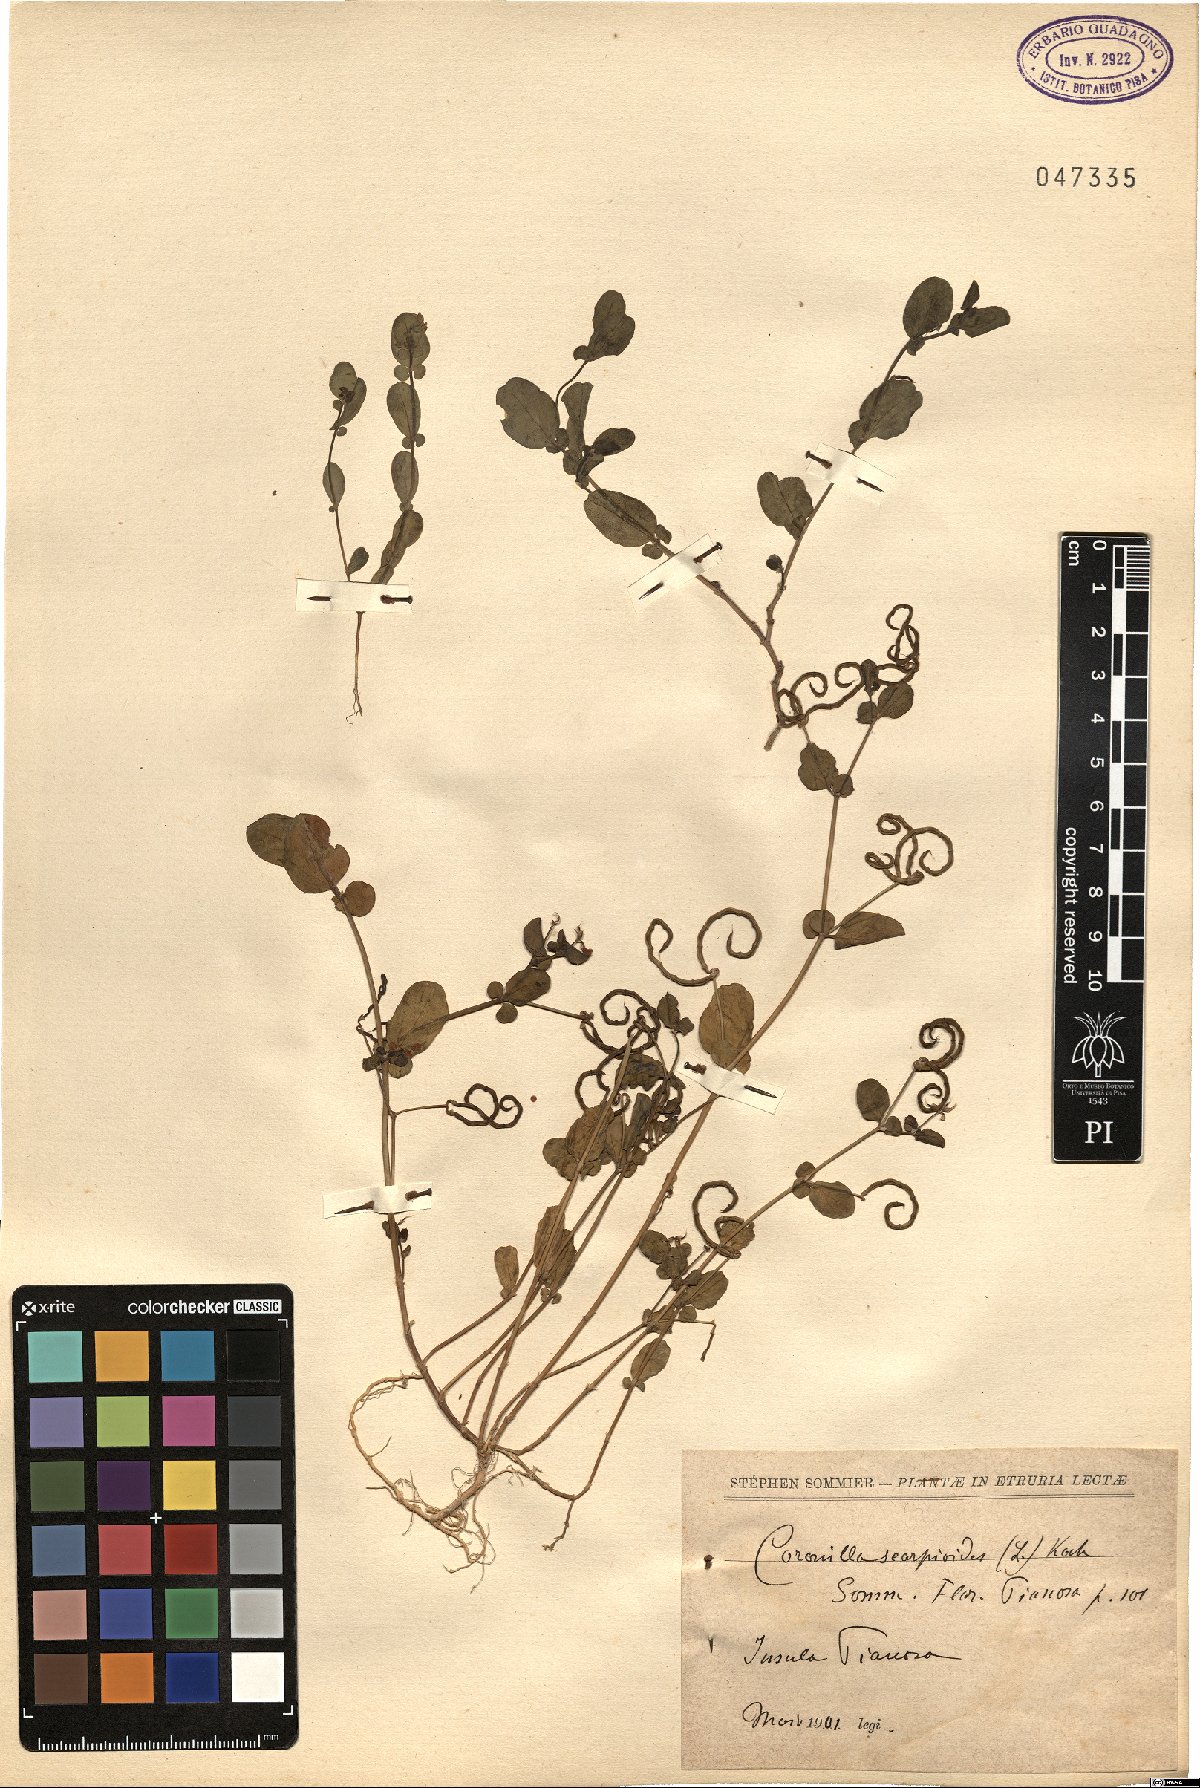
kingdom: Plantae
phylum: Tracheophyta
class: Magnoliopsida
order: Fabales
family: Fabaceae
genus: Coronilla
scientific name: Coronilla scorpioides
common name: Annual scorpion-vetch
